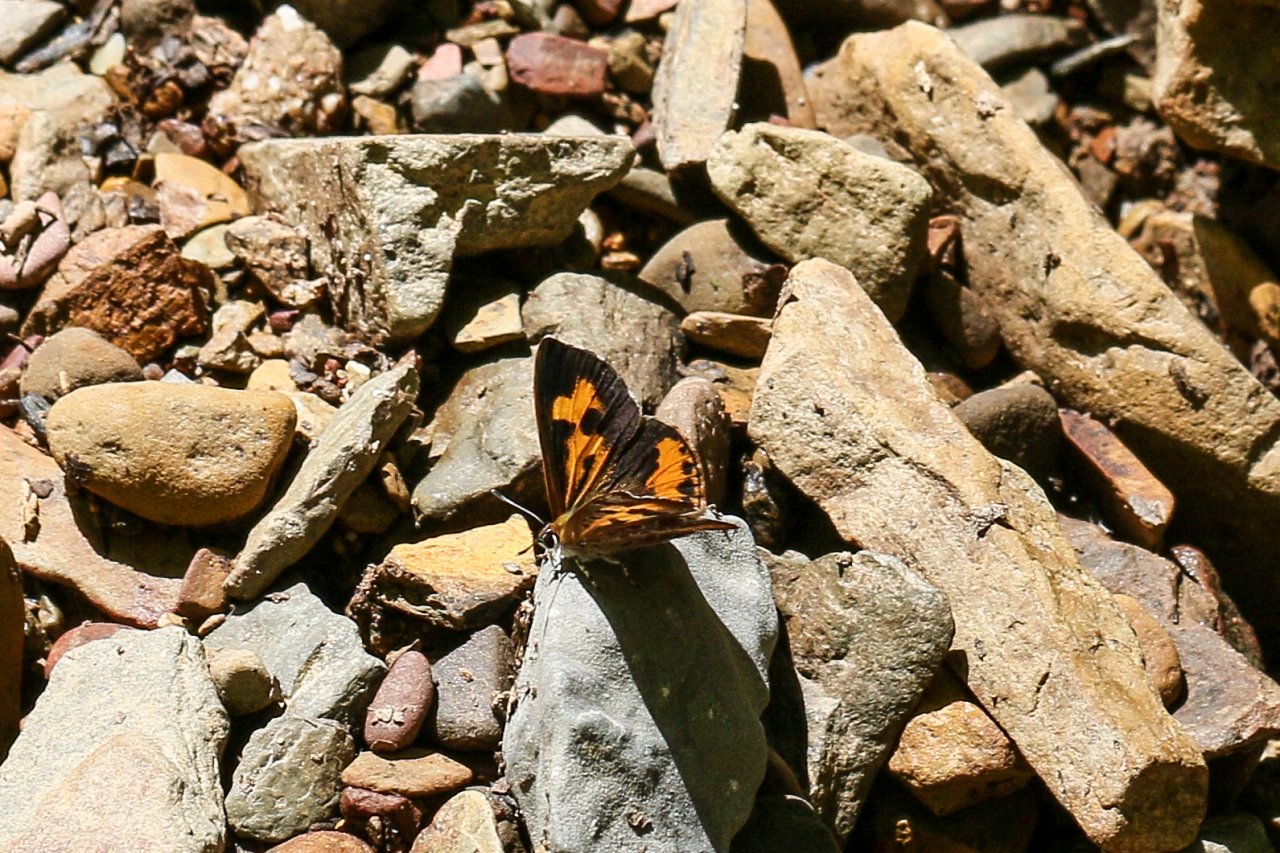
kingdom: Animalia
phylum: Arthropoda
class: Insecta
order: Lepidoptera
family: Lycaenidae
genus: Feniseca
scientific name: Feniseca tarquinius
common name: Harvester
